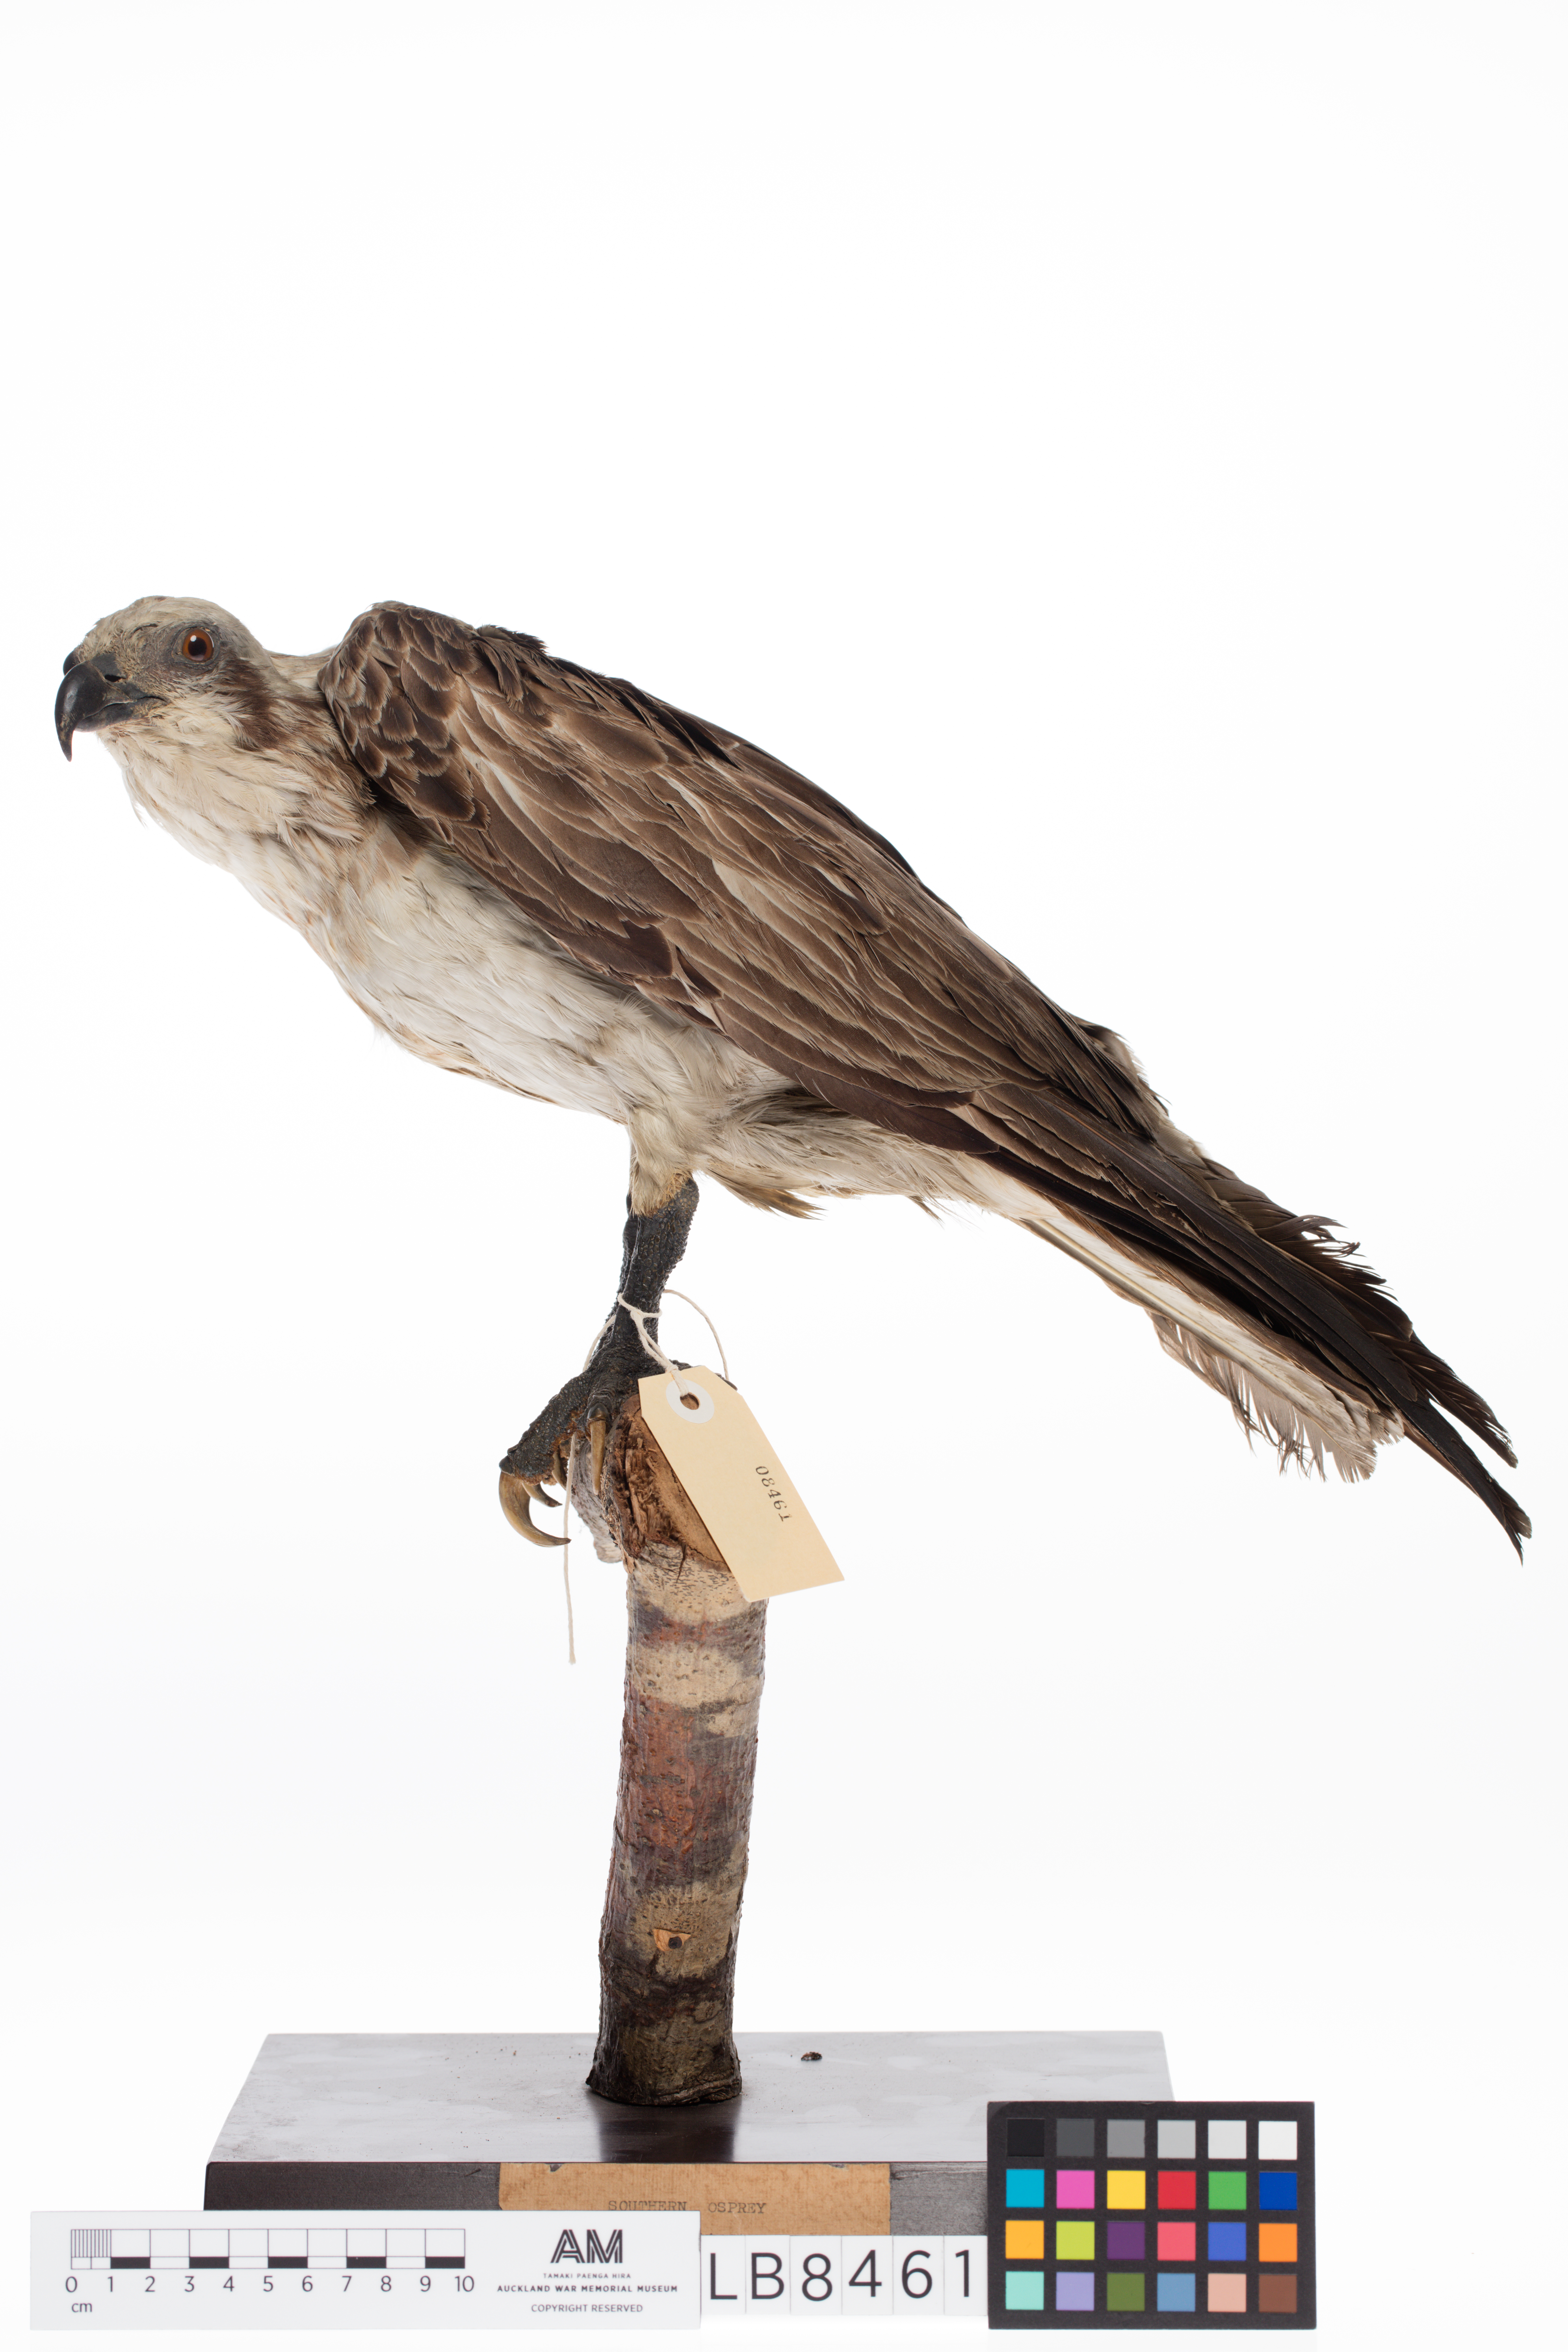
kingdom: Animalia
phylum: Chordata
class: Aves
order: Accipitriformes
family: Pandionidae
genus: Pandion
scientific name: Pandion haliaetus
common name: Osprey
